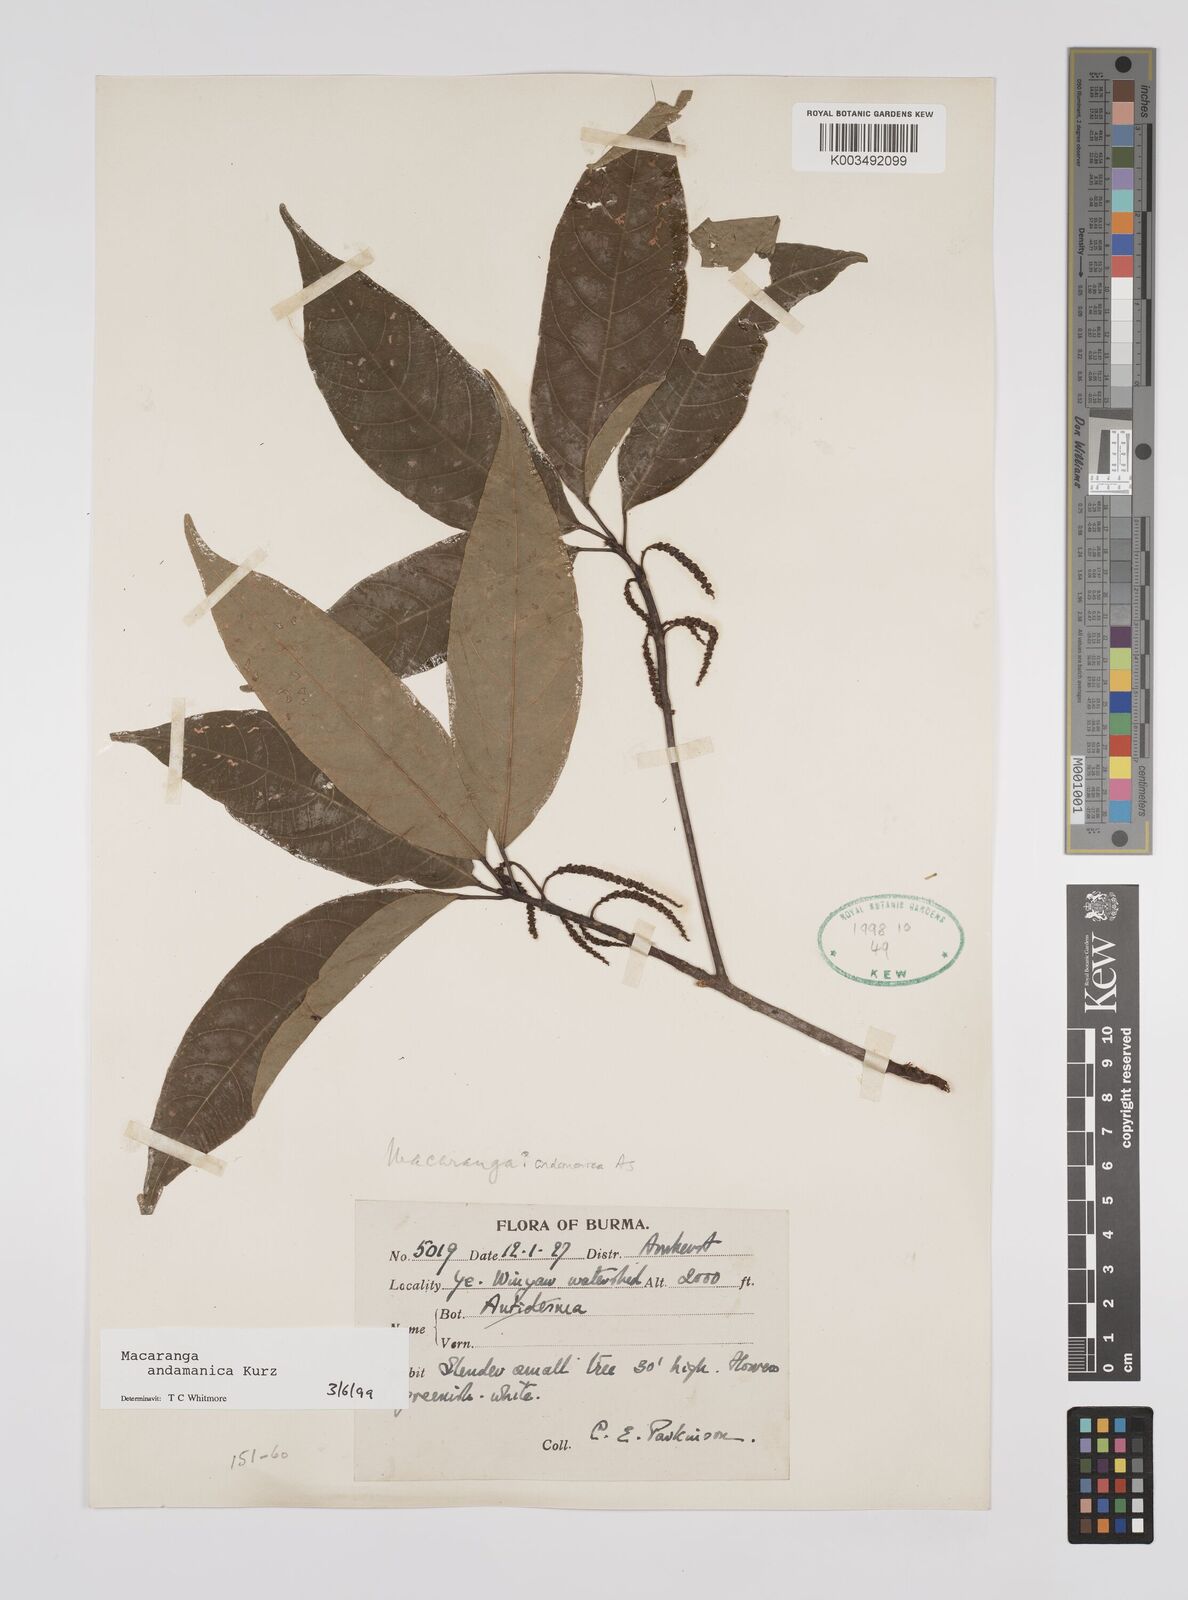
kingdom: Plantae
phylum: Tracheophyta
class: Magnoliopsida
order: Malpighiales
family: Euphorbiaceae
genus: Macaranga
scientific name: Macaranga andamanica
